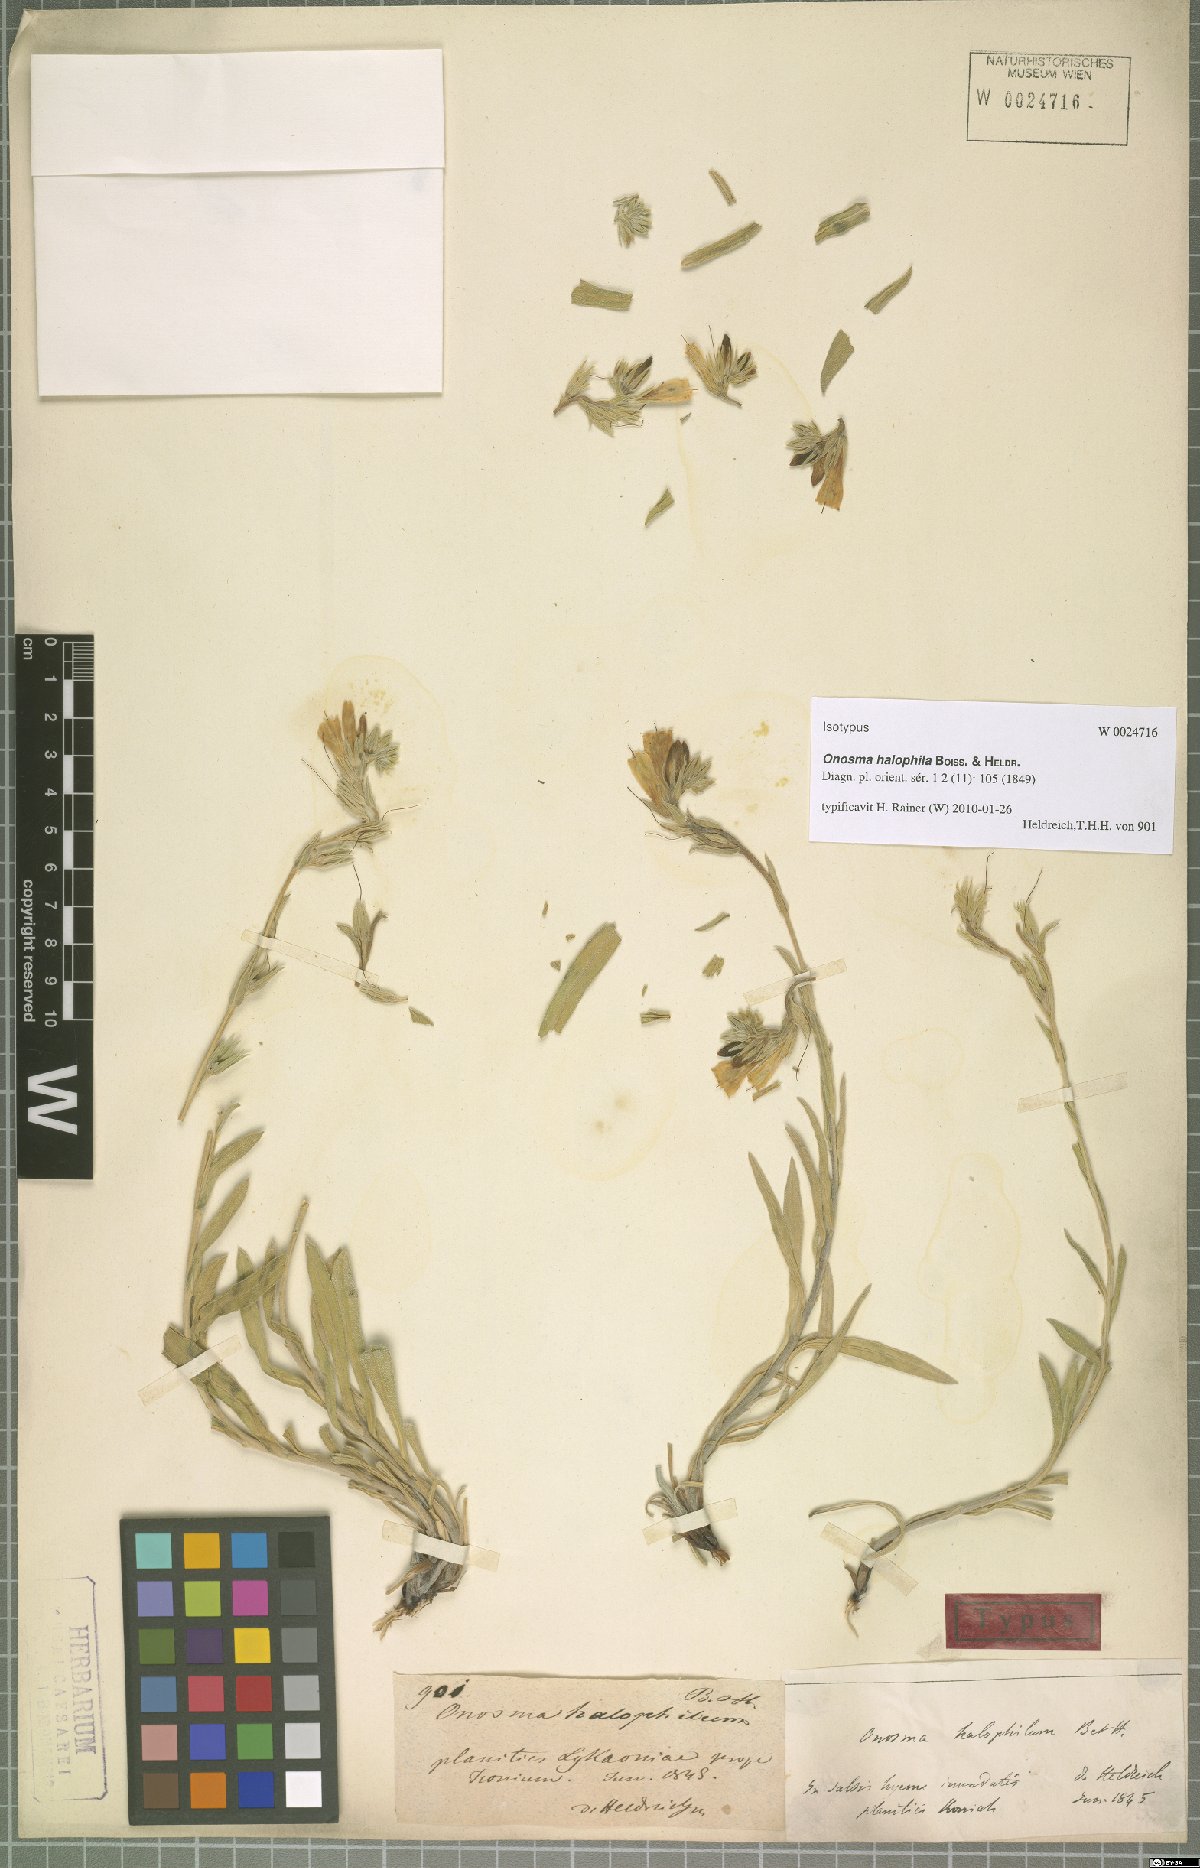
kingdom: Plantae
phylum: Tracheophyta
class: Magnoliopsida
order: Boraginales
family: Boraginaceae
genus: Onosma
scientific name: Onosma halophila
